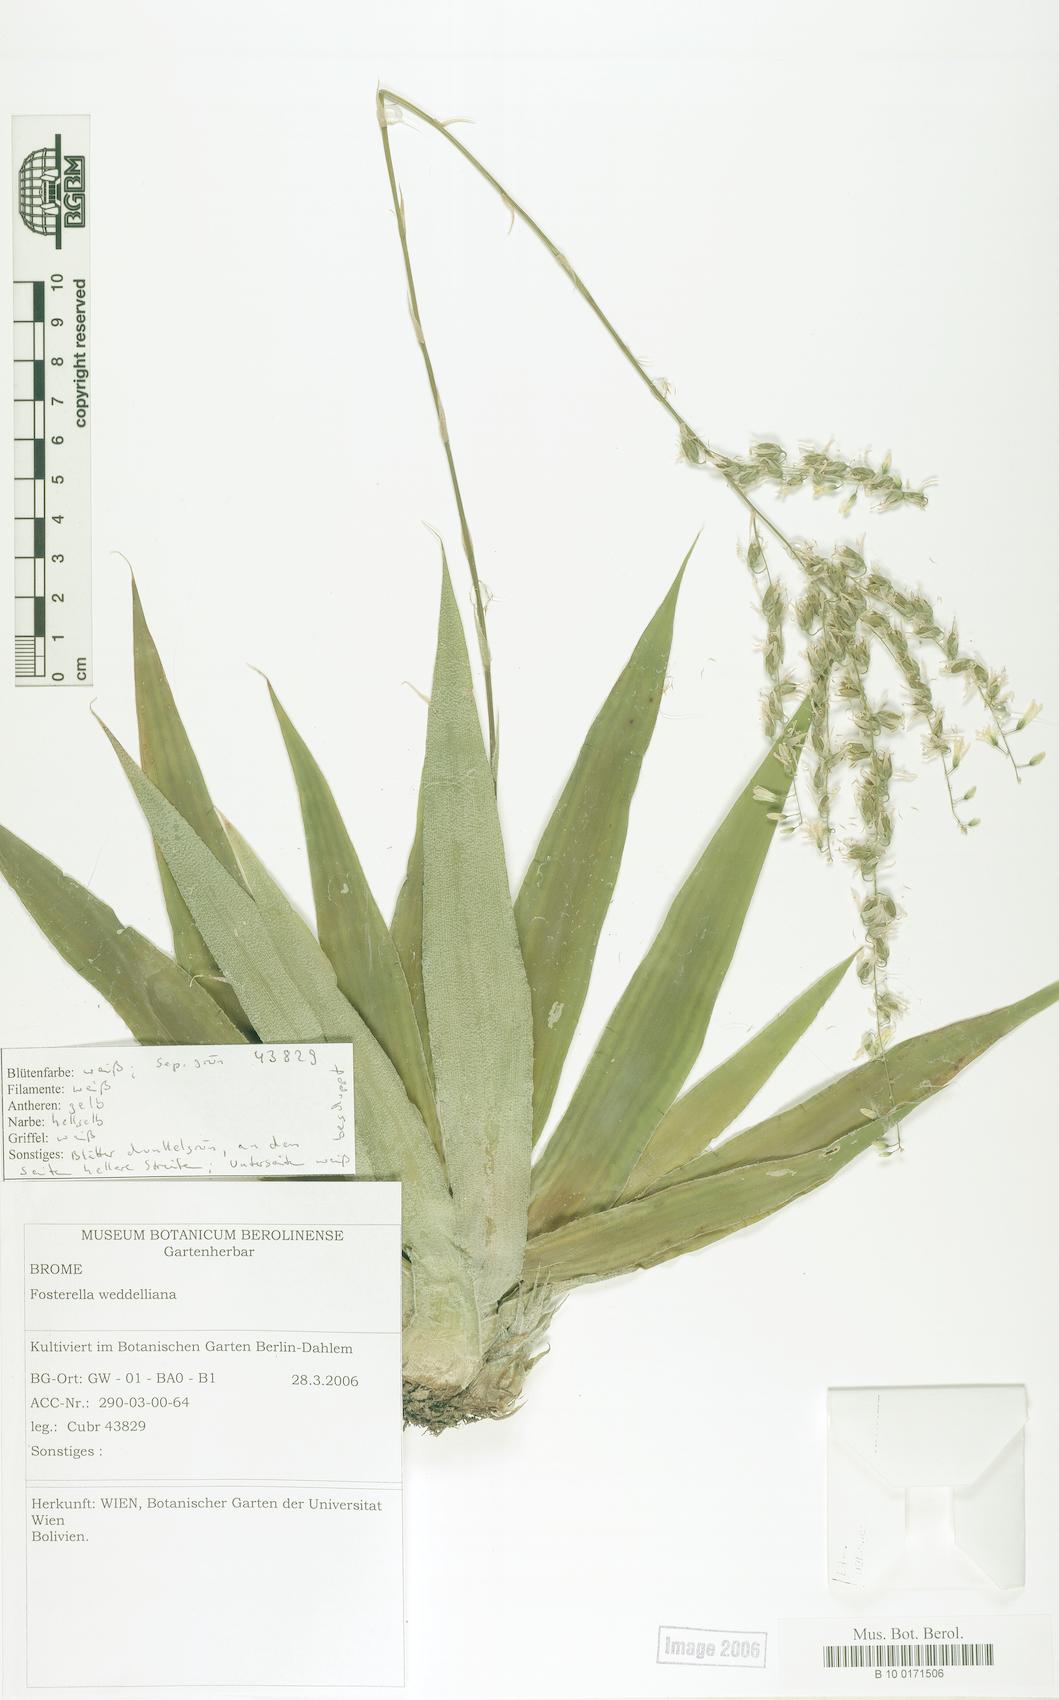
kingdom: Plantae
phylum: Tracheophyta
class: Liliopsida
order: Poales
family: Bromeliaceae
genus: Fosterella
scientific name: Fosterella weddelliana
